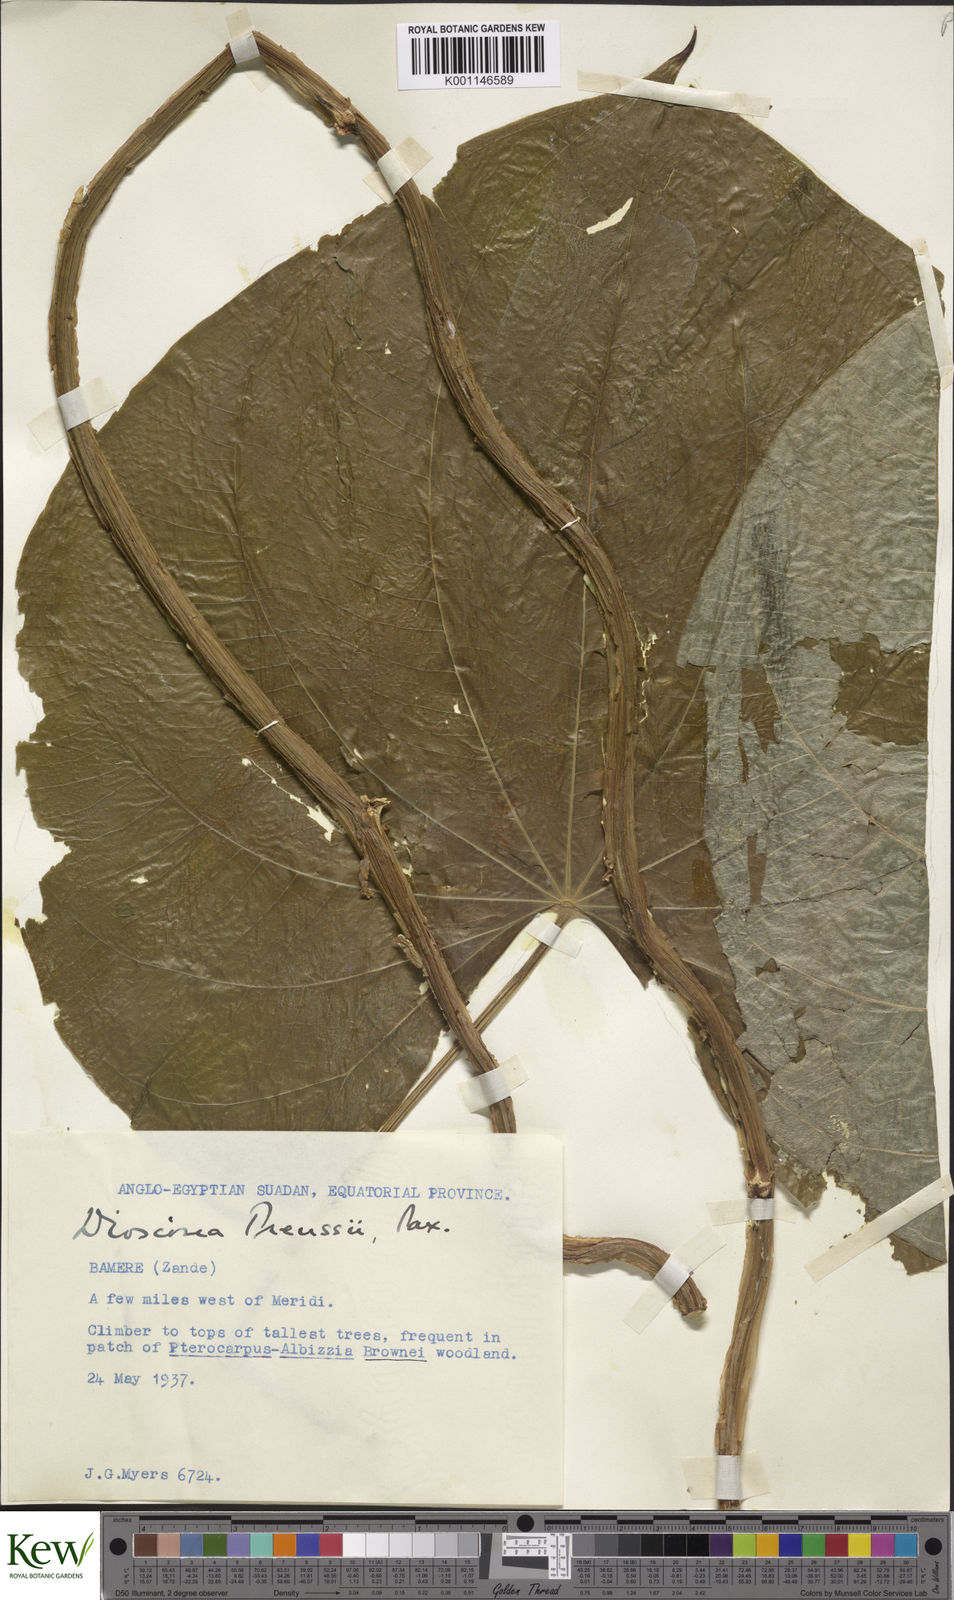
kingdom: Plantae
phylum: Tracheophyta
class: Liliopsida
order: Dioscoreales
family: Dioscoreaceae
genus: Dioscorea
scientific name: Dioscorea preussii
